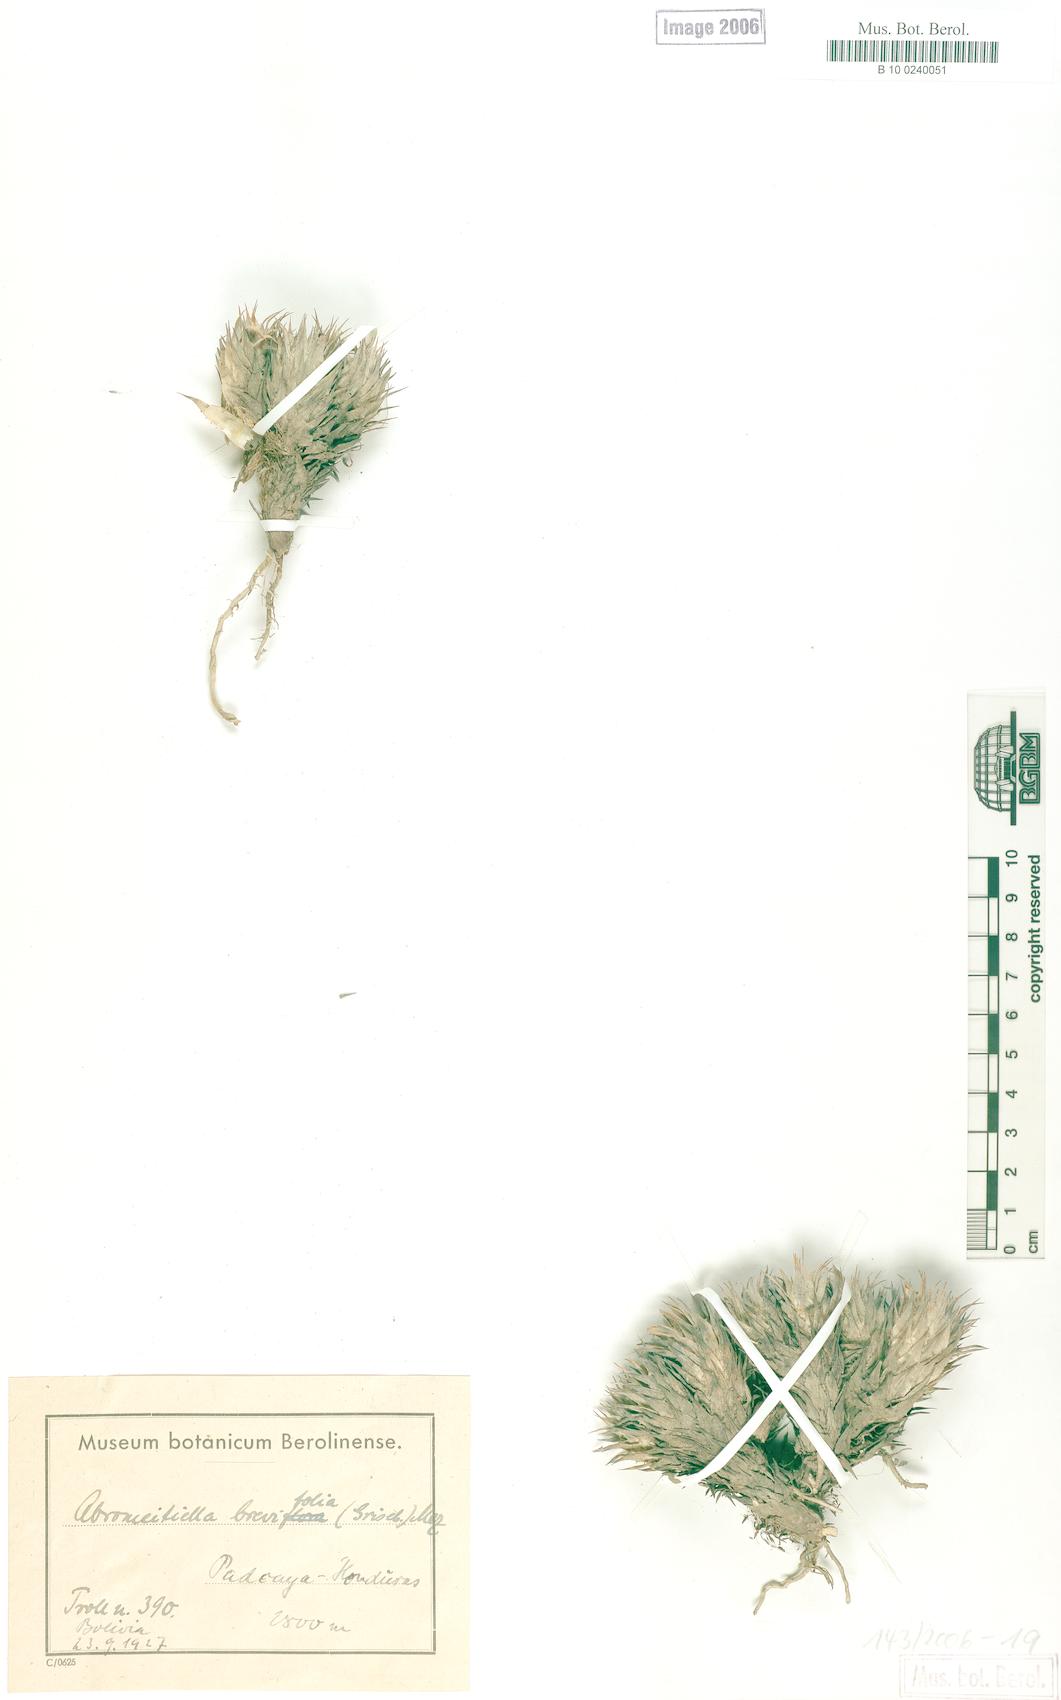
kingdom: Plantae
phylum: Tracheophyta
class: Liliopsida
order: Poales
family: Bromeliaceae
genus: Deuterocohnia
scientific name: Deuterocohnia brevifolia
